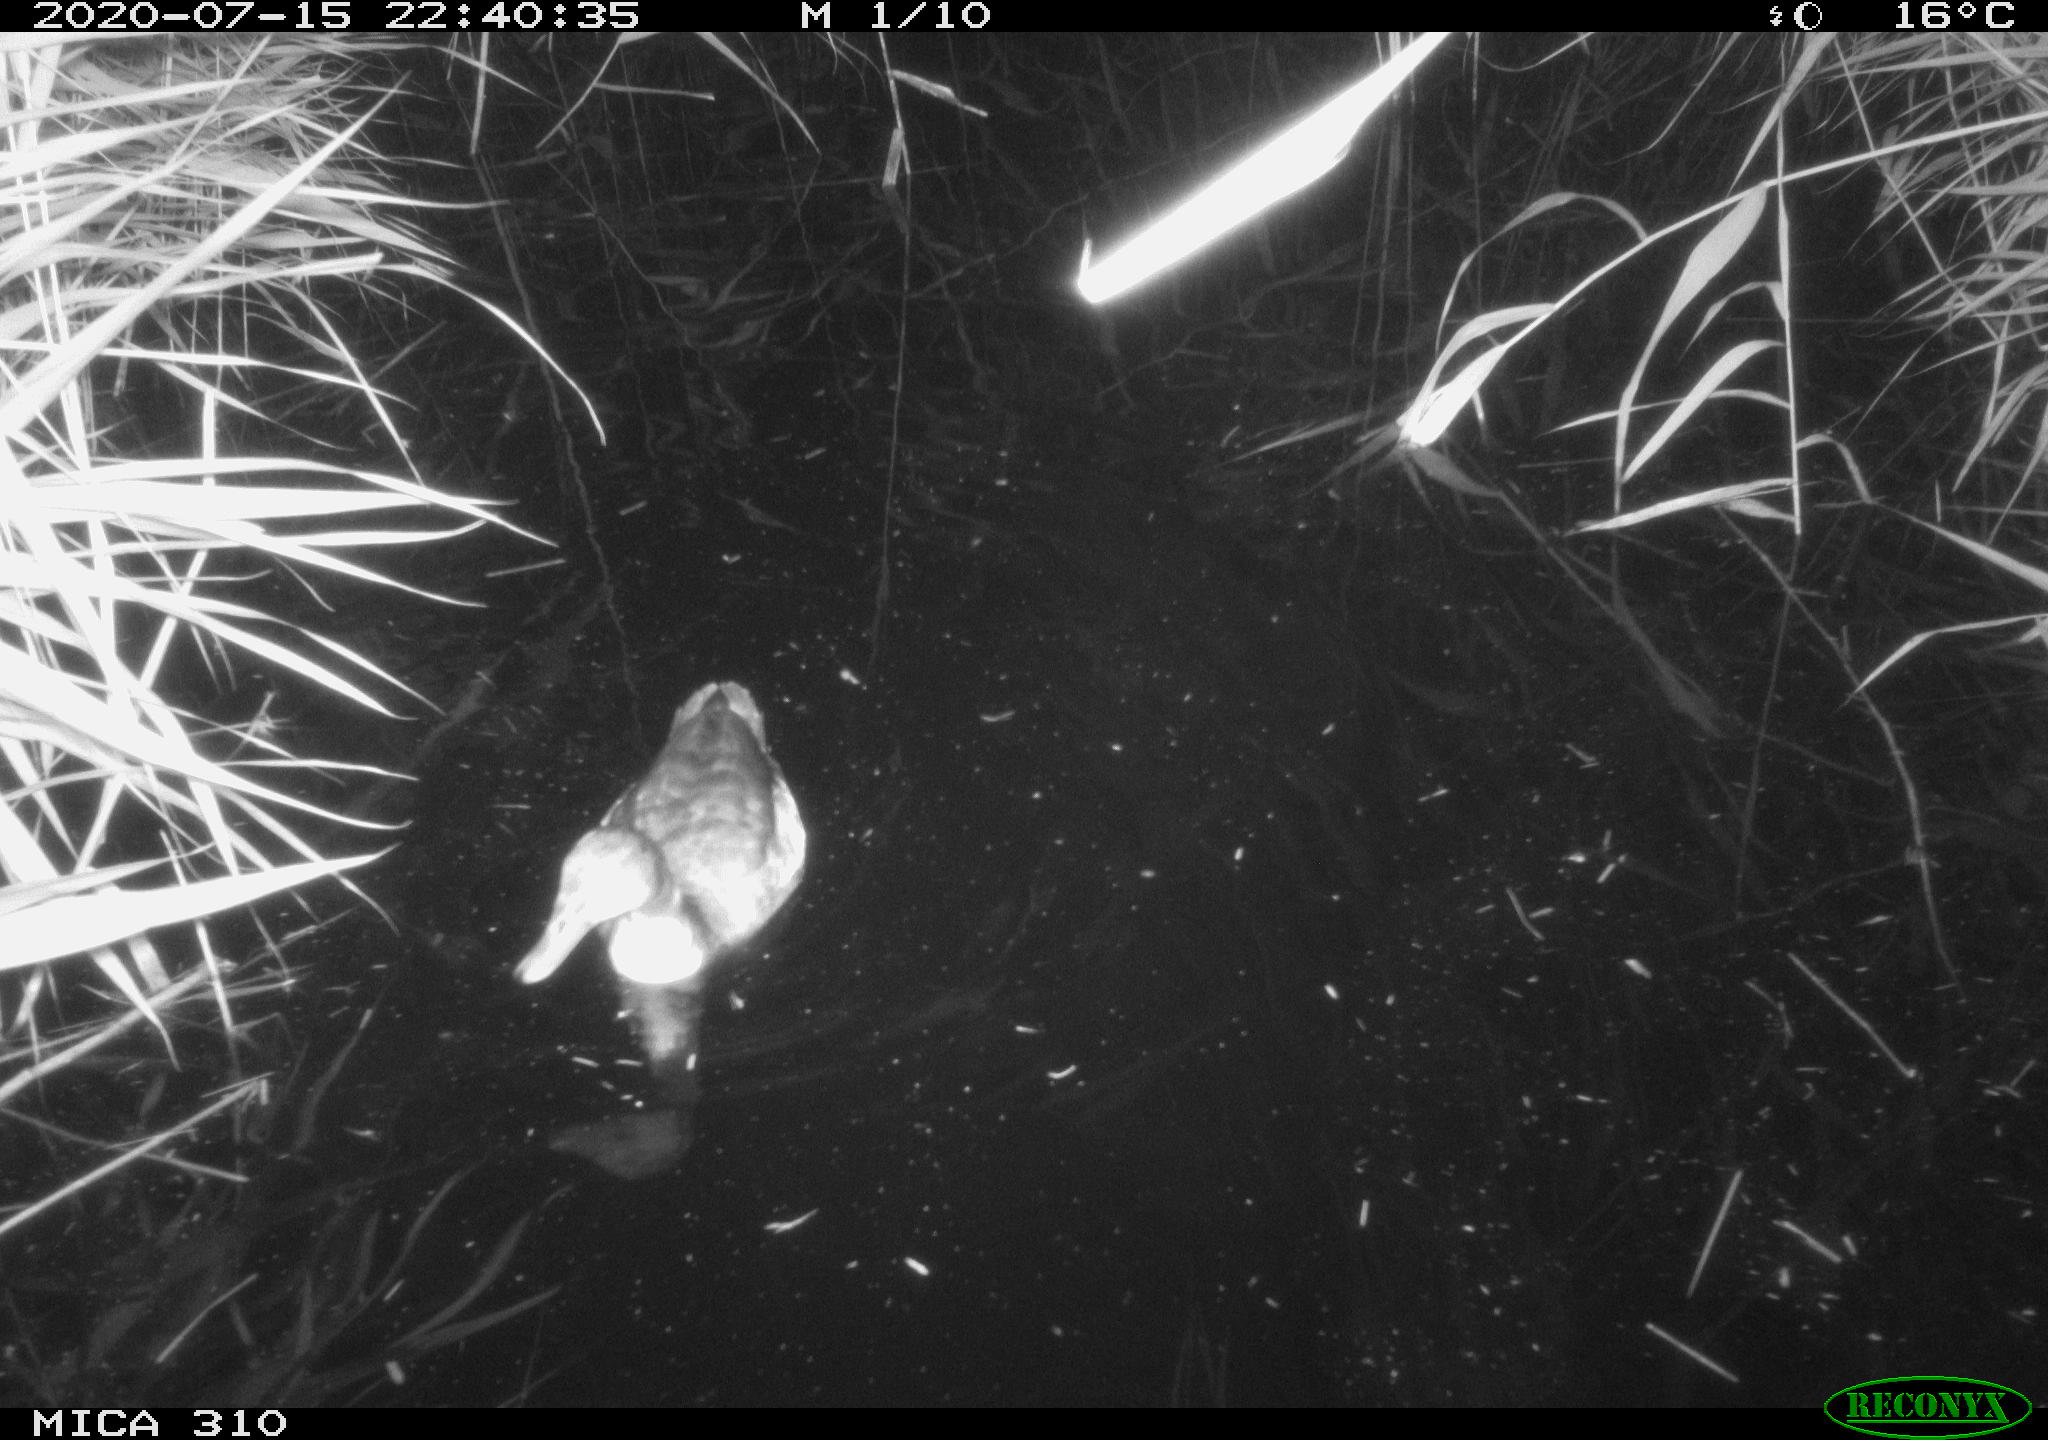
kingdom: Animalia
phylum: Chordata
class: Aves
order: Anseriformes
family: Anatidae
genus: Anas
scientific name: Anas platyrhynchos
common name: Mallard
